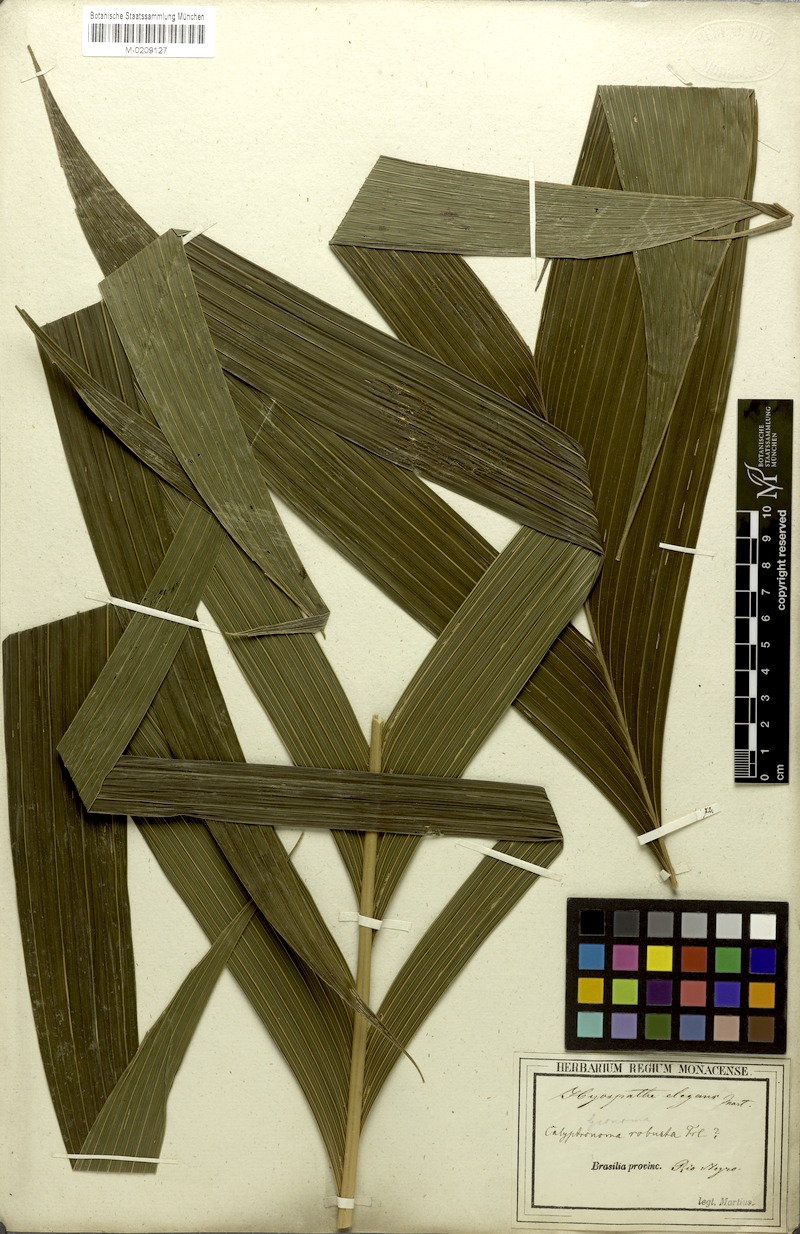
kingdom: Plantae
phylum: Tracheophyta
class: Liliopsida
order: Arecales
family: Arecaceae
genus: Hyospathe
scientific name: Hyospathe elegans
